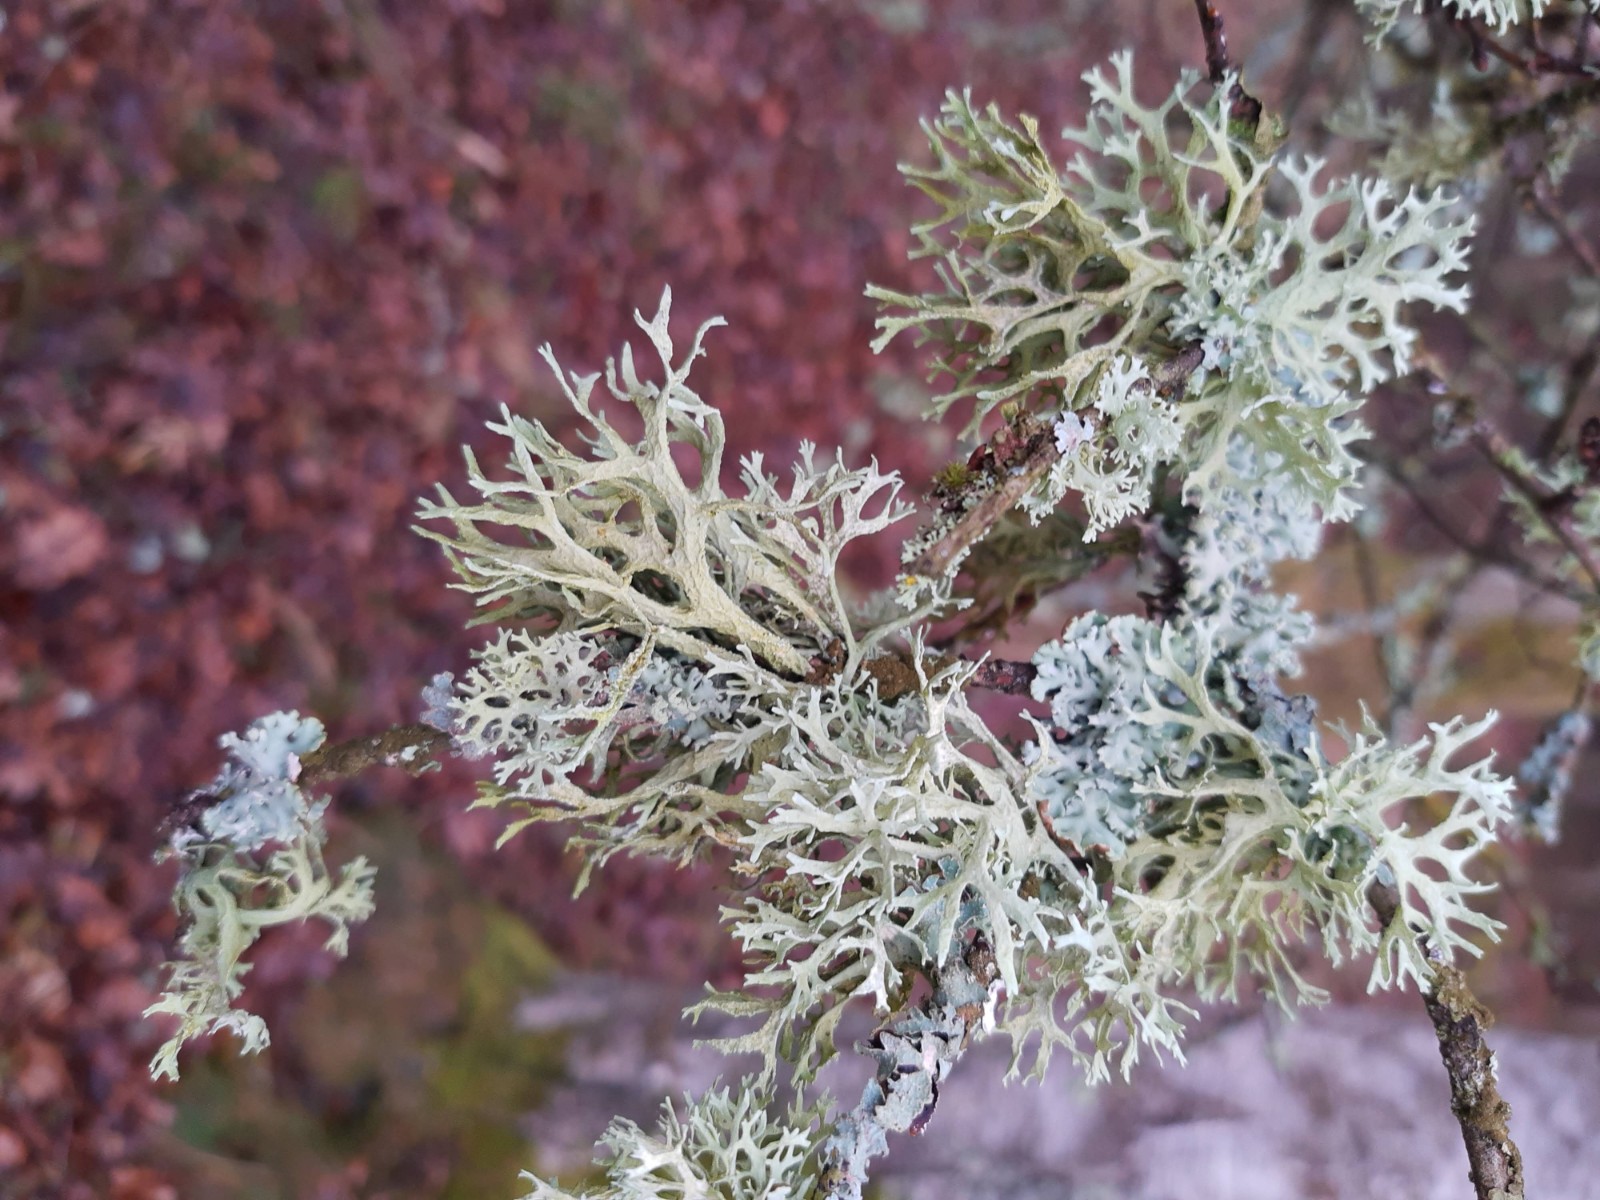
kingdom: Fungi
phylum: Ascomycota
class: Lecanoromycetes
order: Lecanorales
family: Parmeliaceae
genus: Evernia
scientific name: Evernia prunastri
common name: almindelig slåenlav
